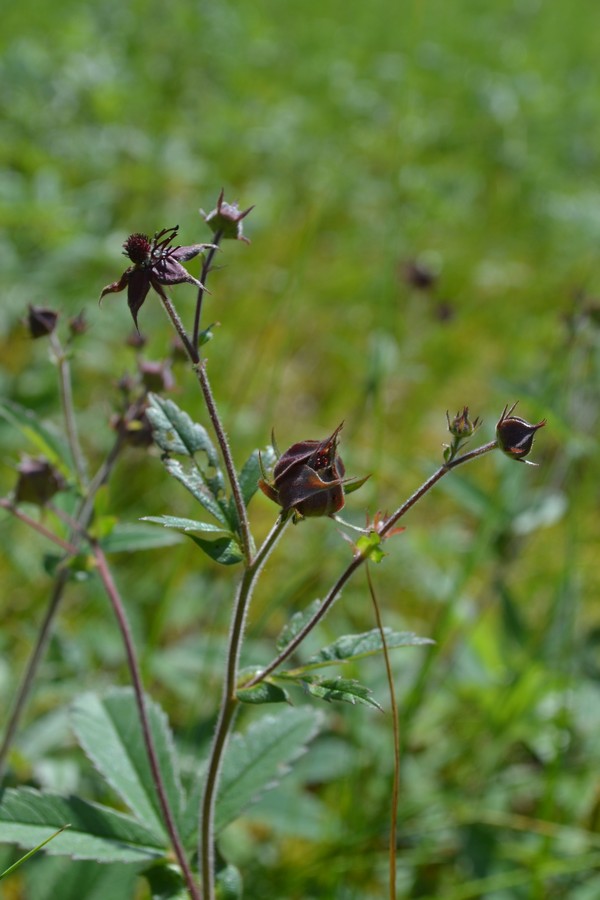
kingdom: Plantae
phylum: Tracheophyta
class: Magnoliopsida
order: Rosales
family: Rosaceae
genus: Comarum
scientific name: Comarum palustre
